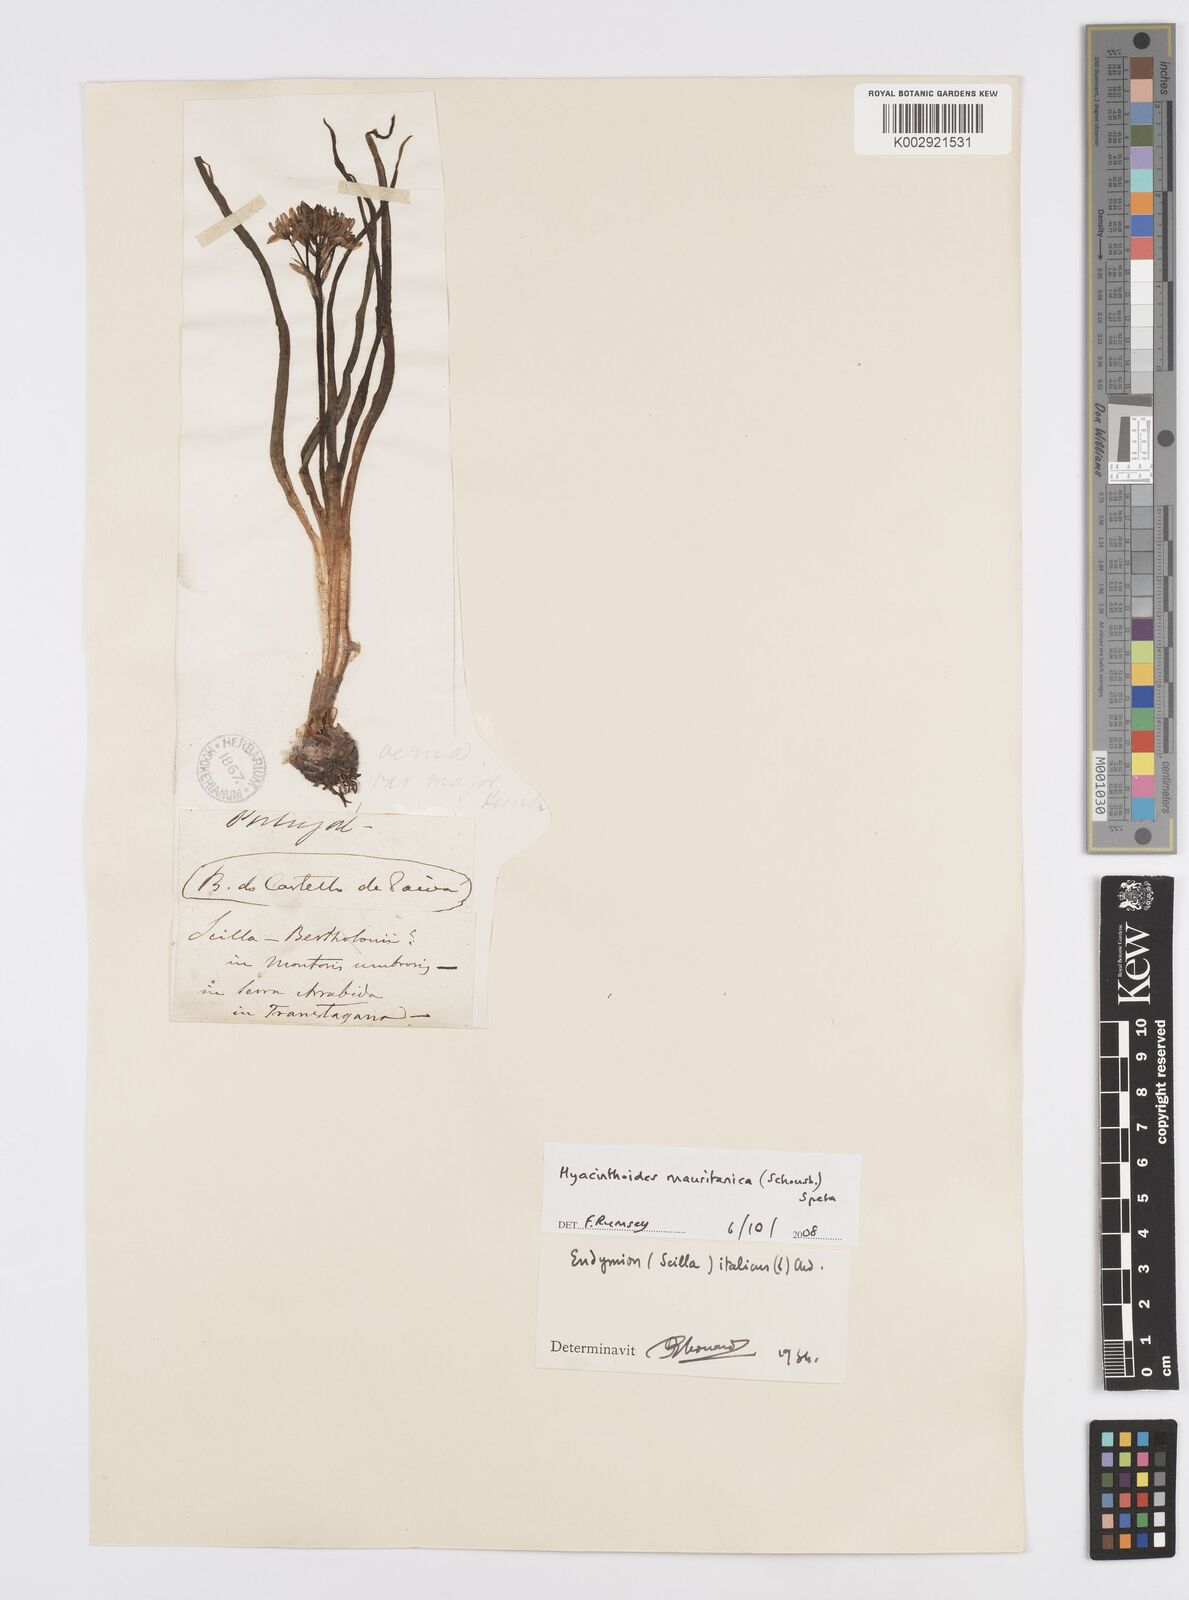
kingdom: Plantae
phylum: Tracheophyta
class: Liliopsida
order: Asparagales
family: Asparagaceae
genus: Hyacinthoides
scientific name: Hyacinthoides mauritanica
